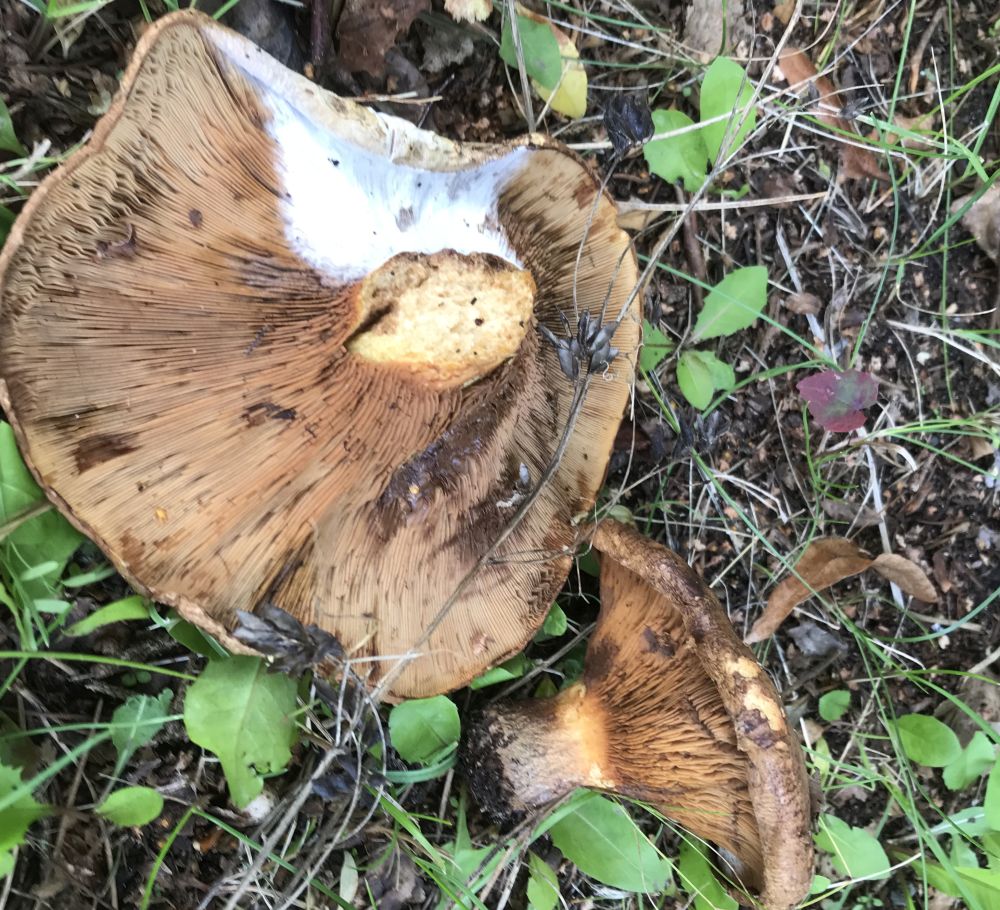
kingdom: Fungi
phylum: Basidiomycota
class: Agaricomycetes
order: Boletales
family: Paxillaceae
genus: Paxillus
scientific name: Paxillus
